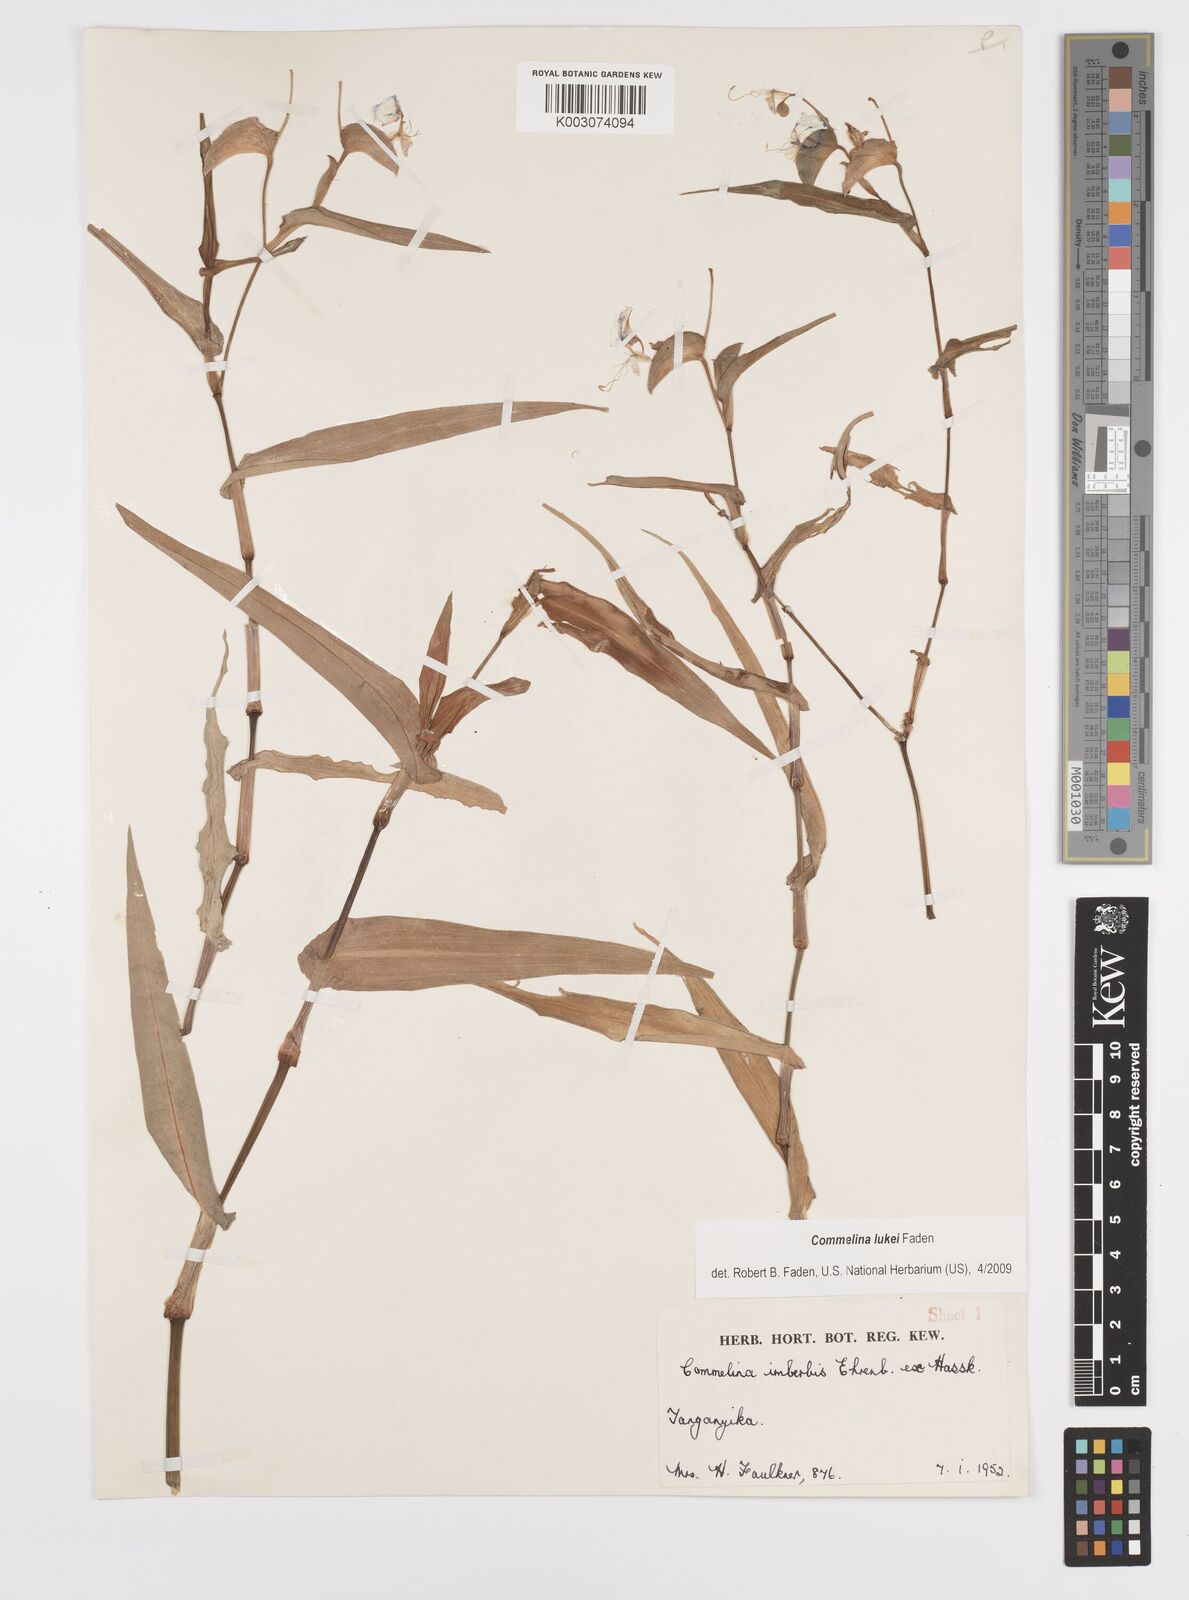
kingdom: Plantae
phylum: Tracheophyta
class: Liliopsida
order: Commelinales
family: Commelinaceae
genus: Commelina
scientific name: Commelina lukei
